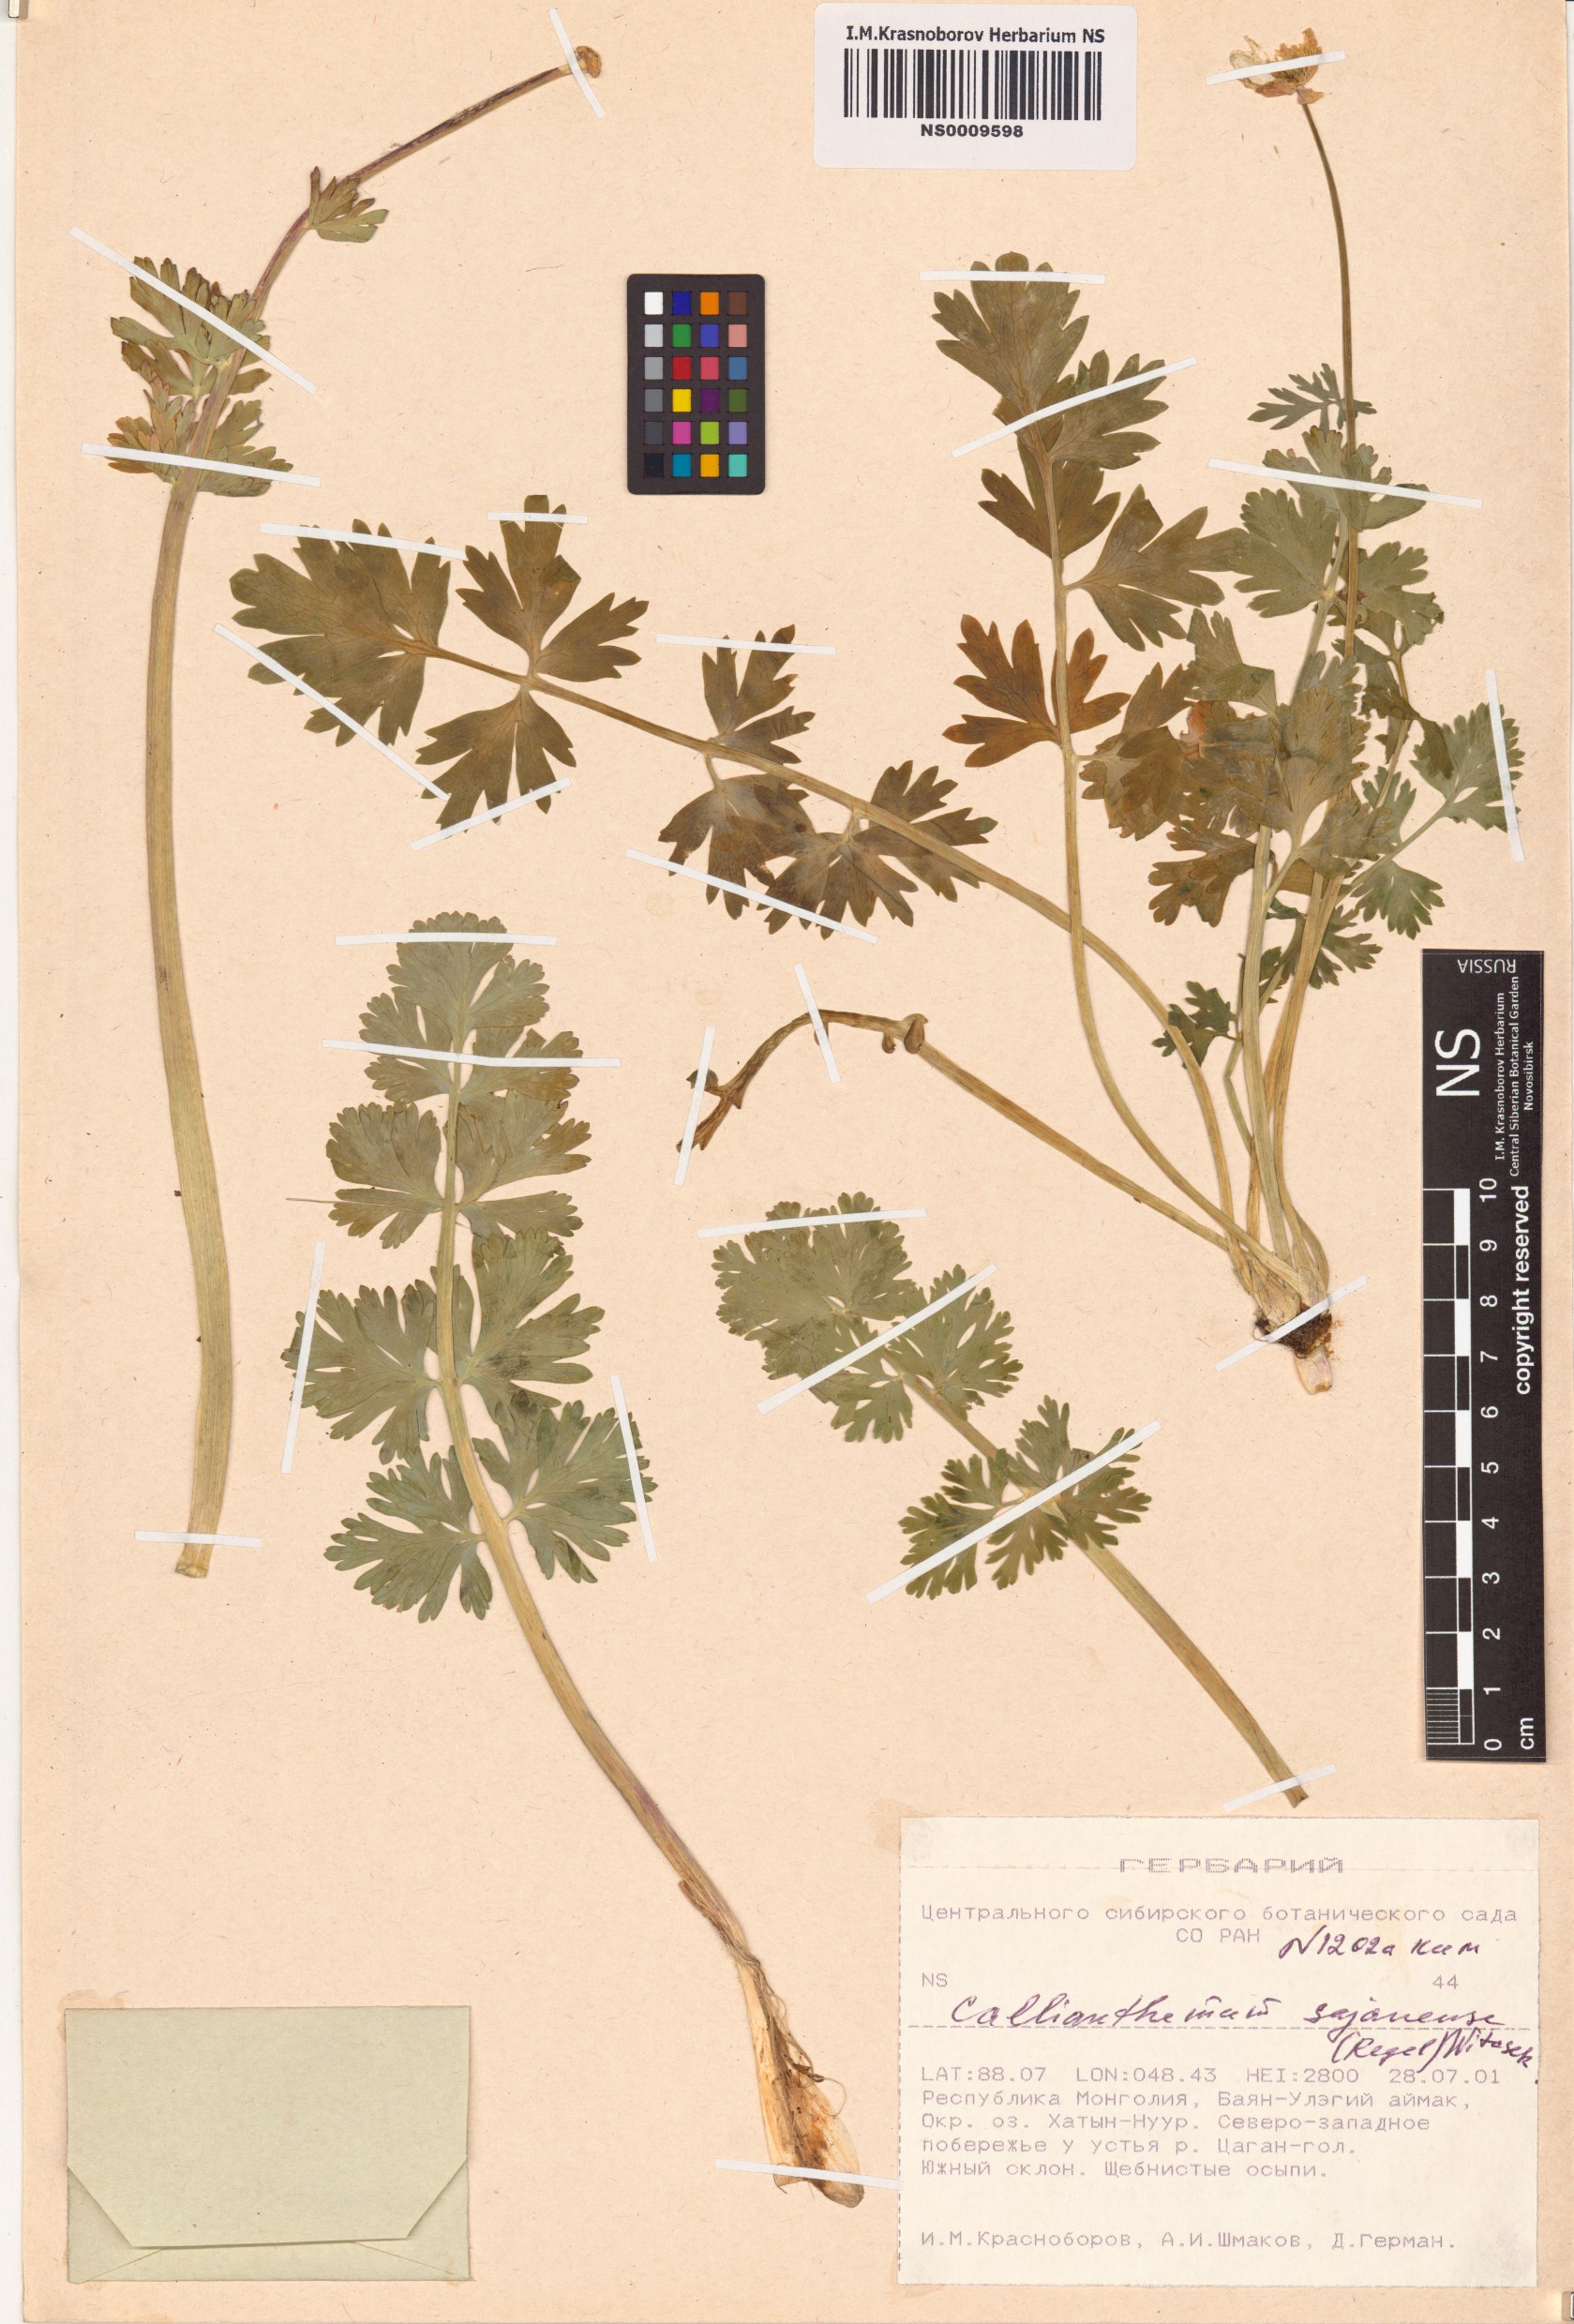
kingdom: Plantae
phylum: Tracheophyta
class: Magnoliopsida
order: Ranunculales
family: Ranunculaceae
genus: Callianthemum
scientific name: Callianthemum sajanense
